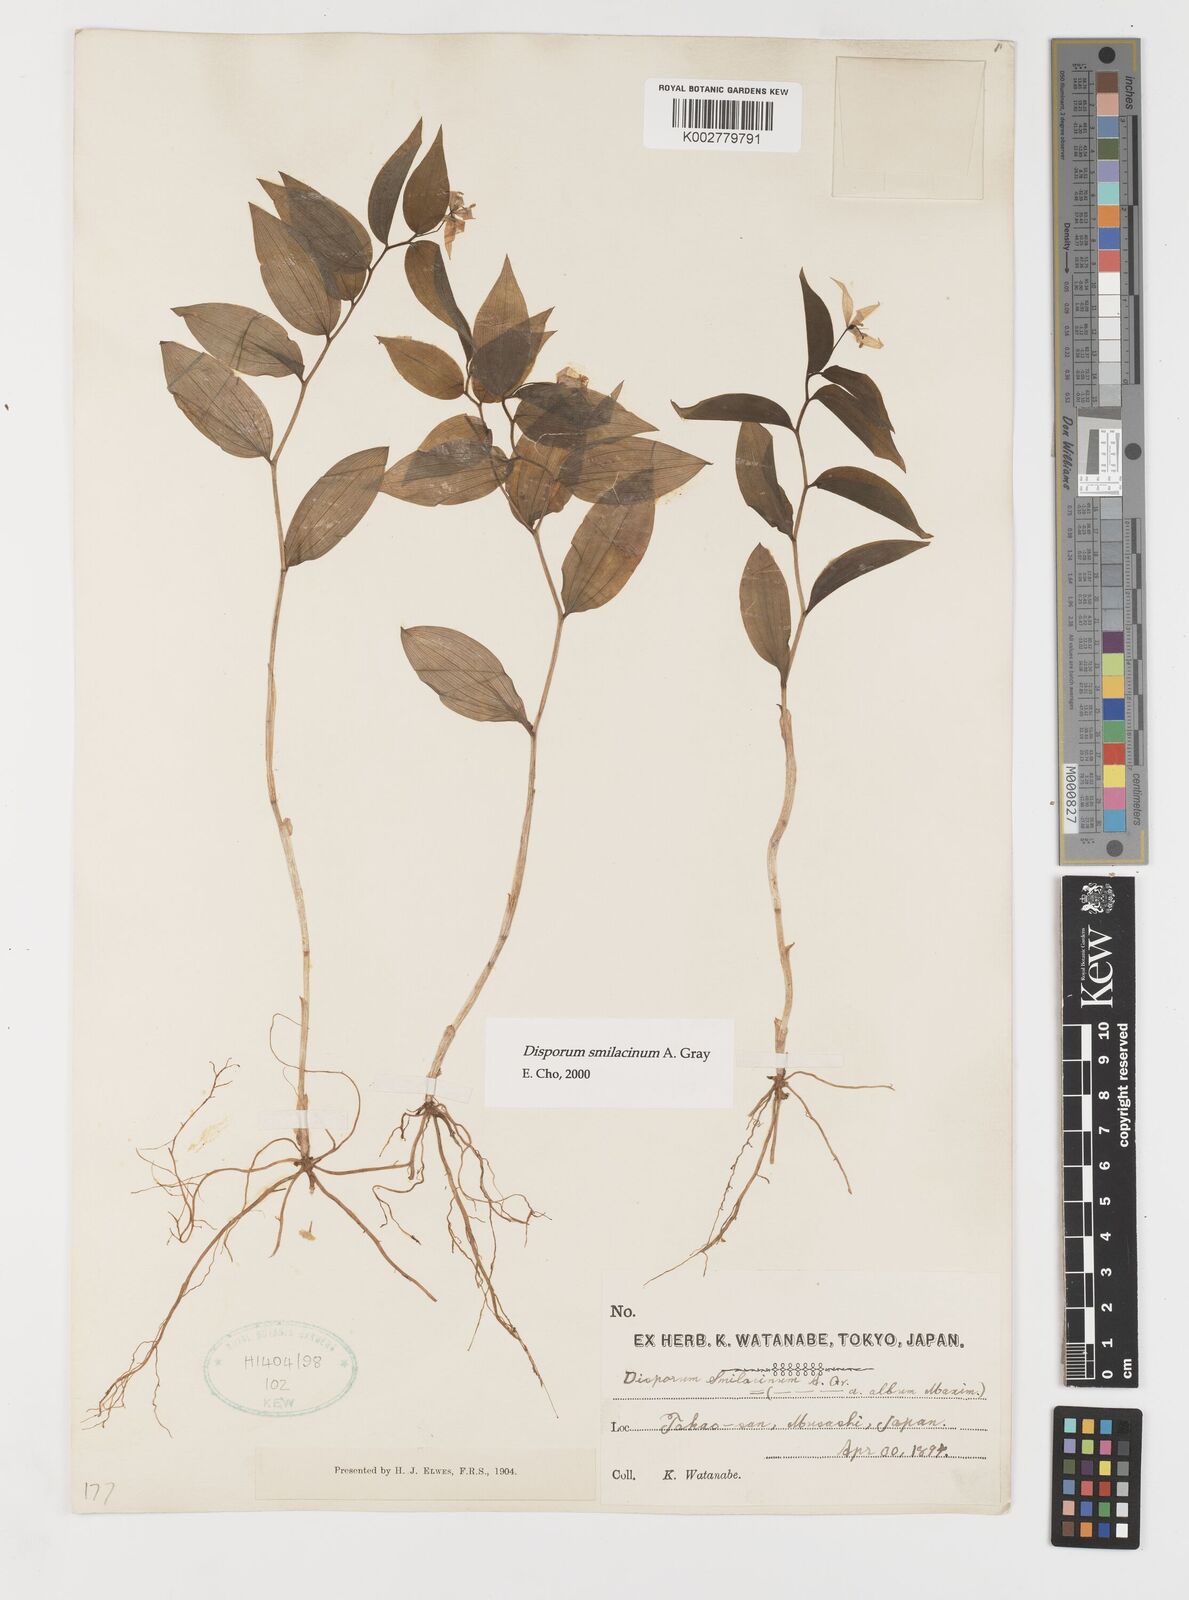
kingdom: Plantae
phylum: Tracheophyta
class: Liliopsida
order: Liliales
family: Colchicaceae
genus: Disporum
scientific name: Disporum smilacinum
